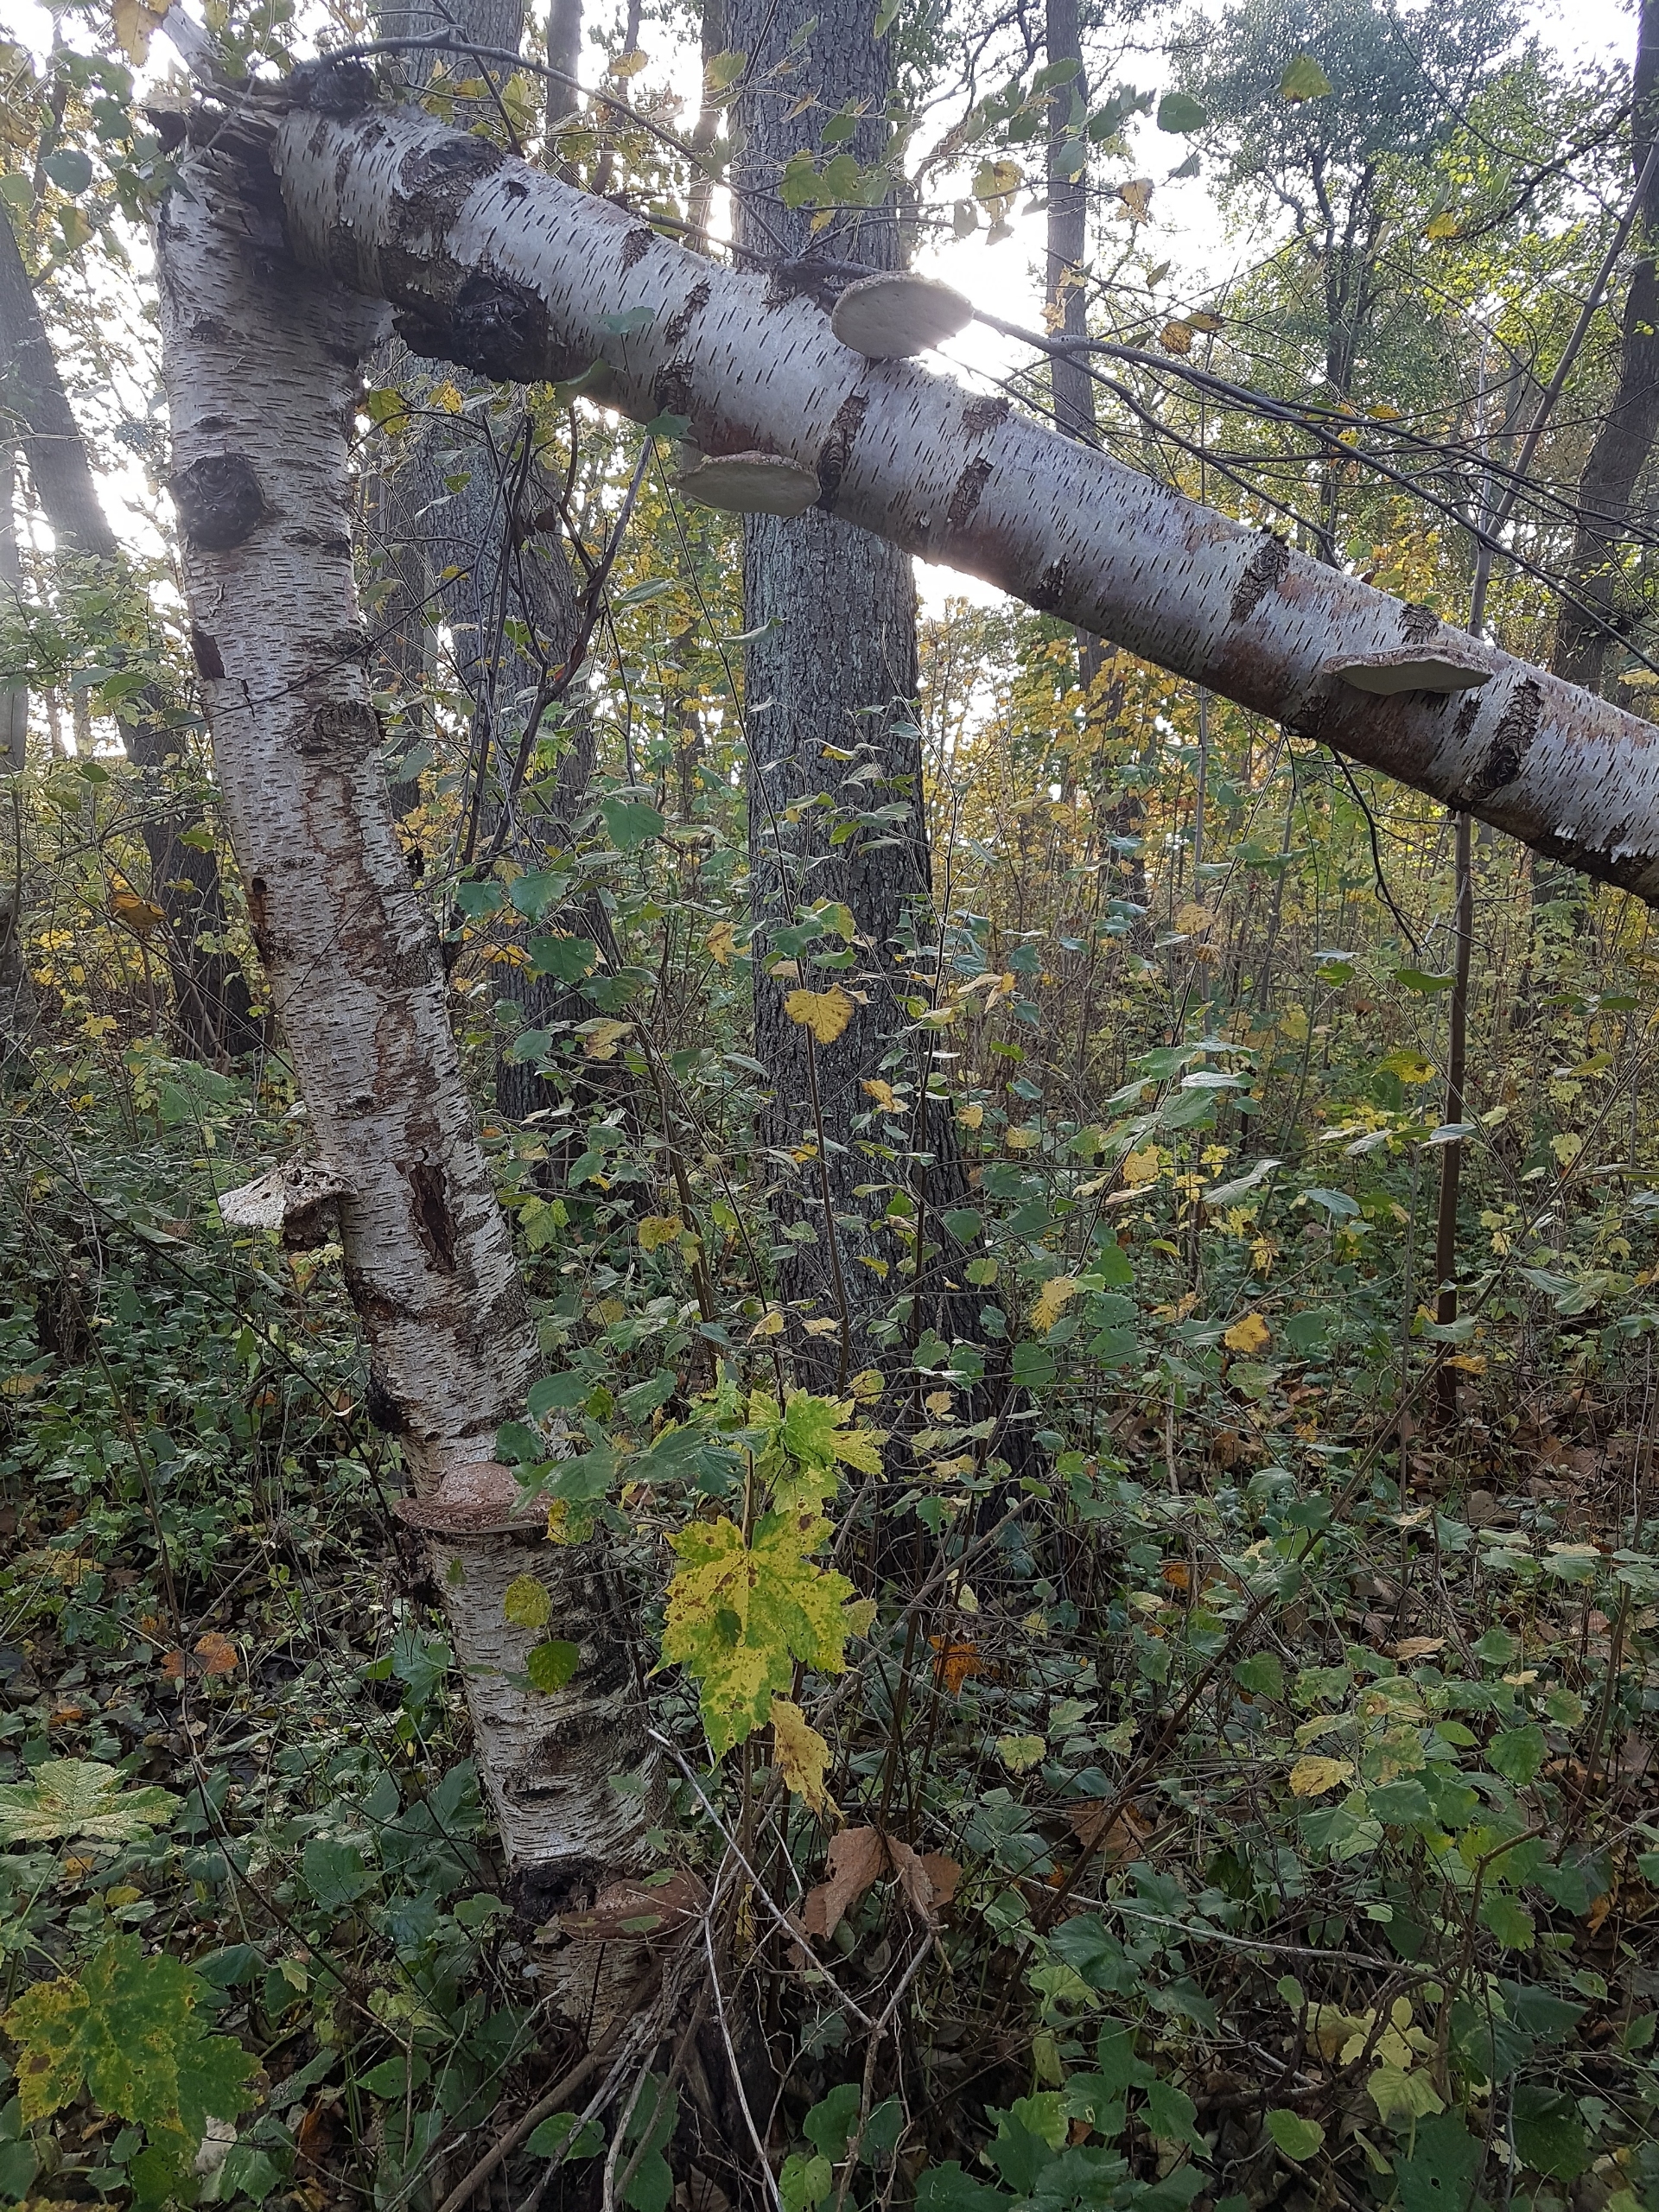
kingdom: Fungi
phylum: Basidiomycota
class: Agaricomycetes
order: Polyporales
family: Fomitopsidaceae
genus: Fomitopsis
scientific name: Fomitopsis betulina
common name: Birkeporesvamp
